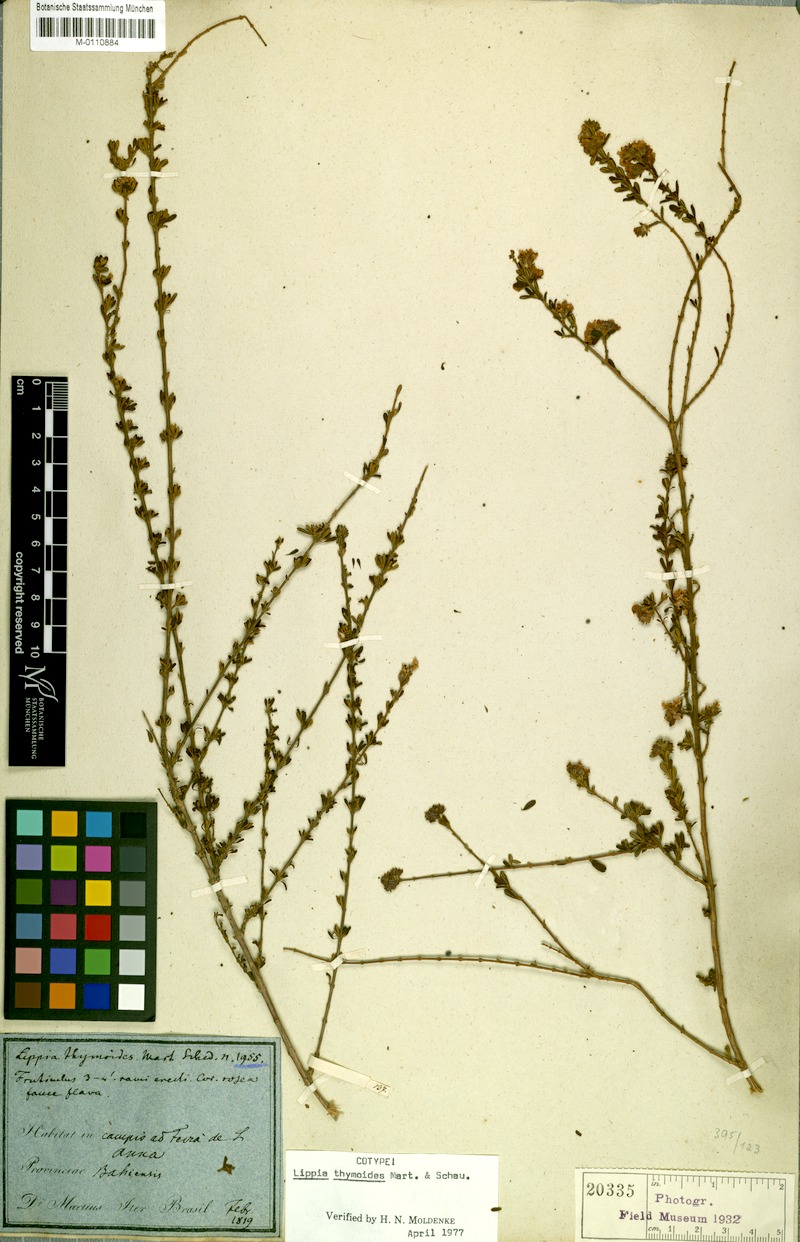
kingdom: Plantae
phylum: Tracheophyta
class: Magnoliopsida
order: Lamiales
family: Verbenaceae
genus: Lippia
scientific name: Lippia thymoides
